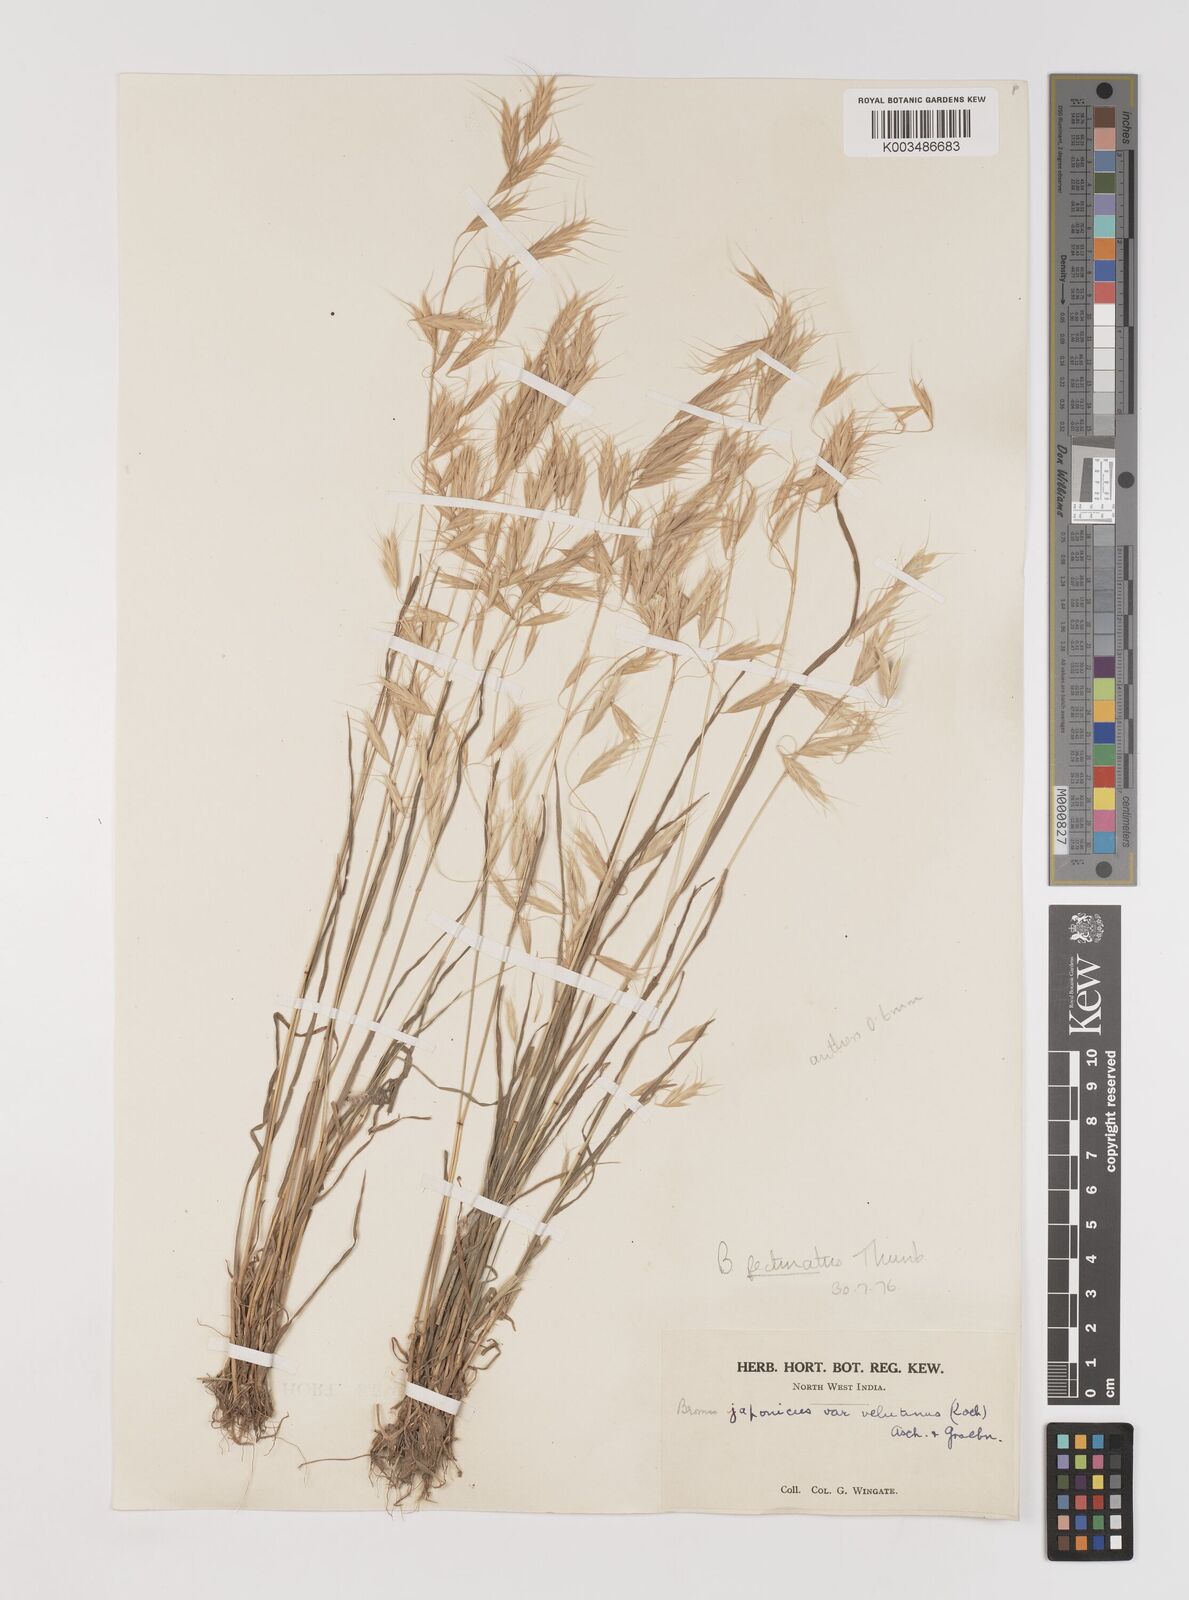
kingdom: Plantae
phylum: Tracheophyta
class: Liliopsida
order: Poales
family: Poaceae
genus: Bromus
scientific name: Bromus pectinatus
